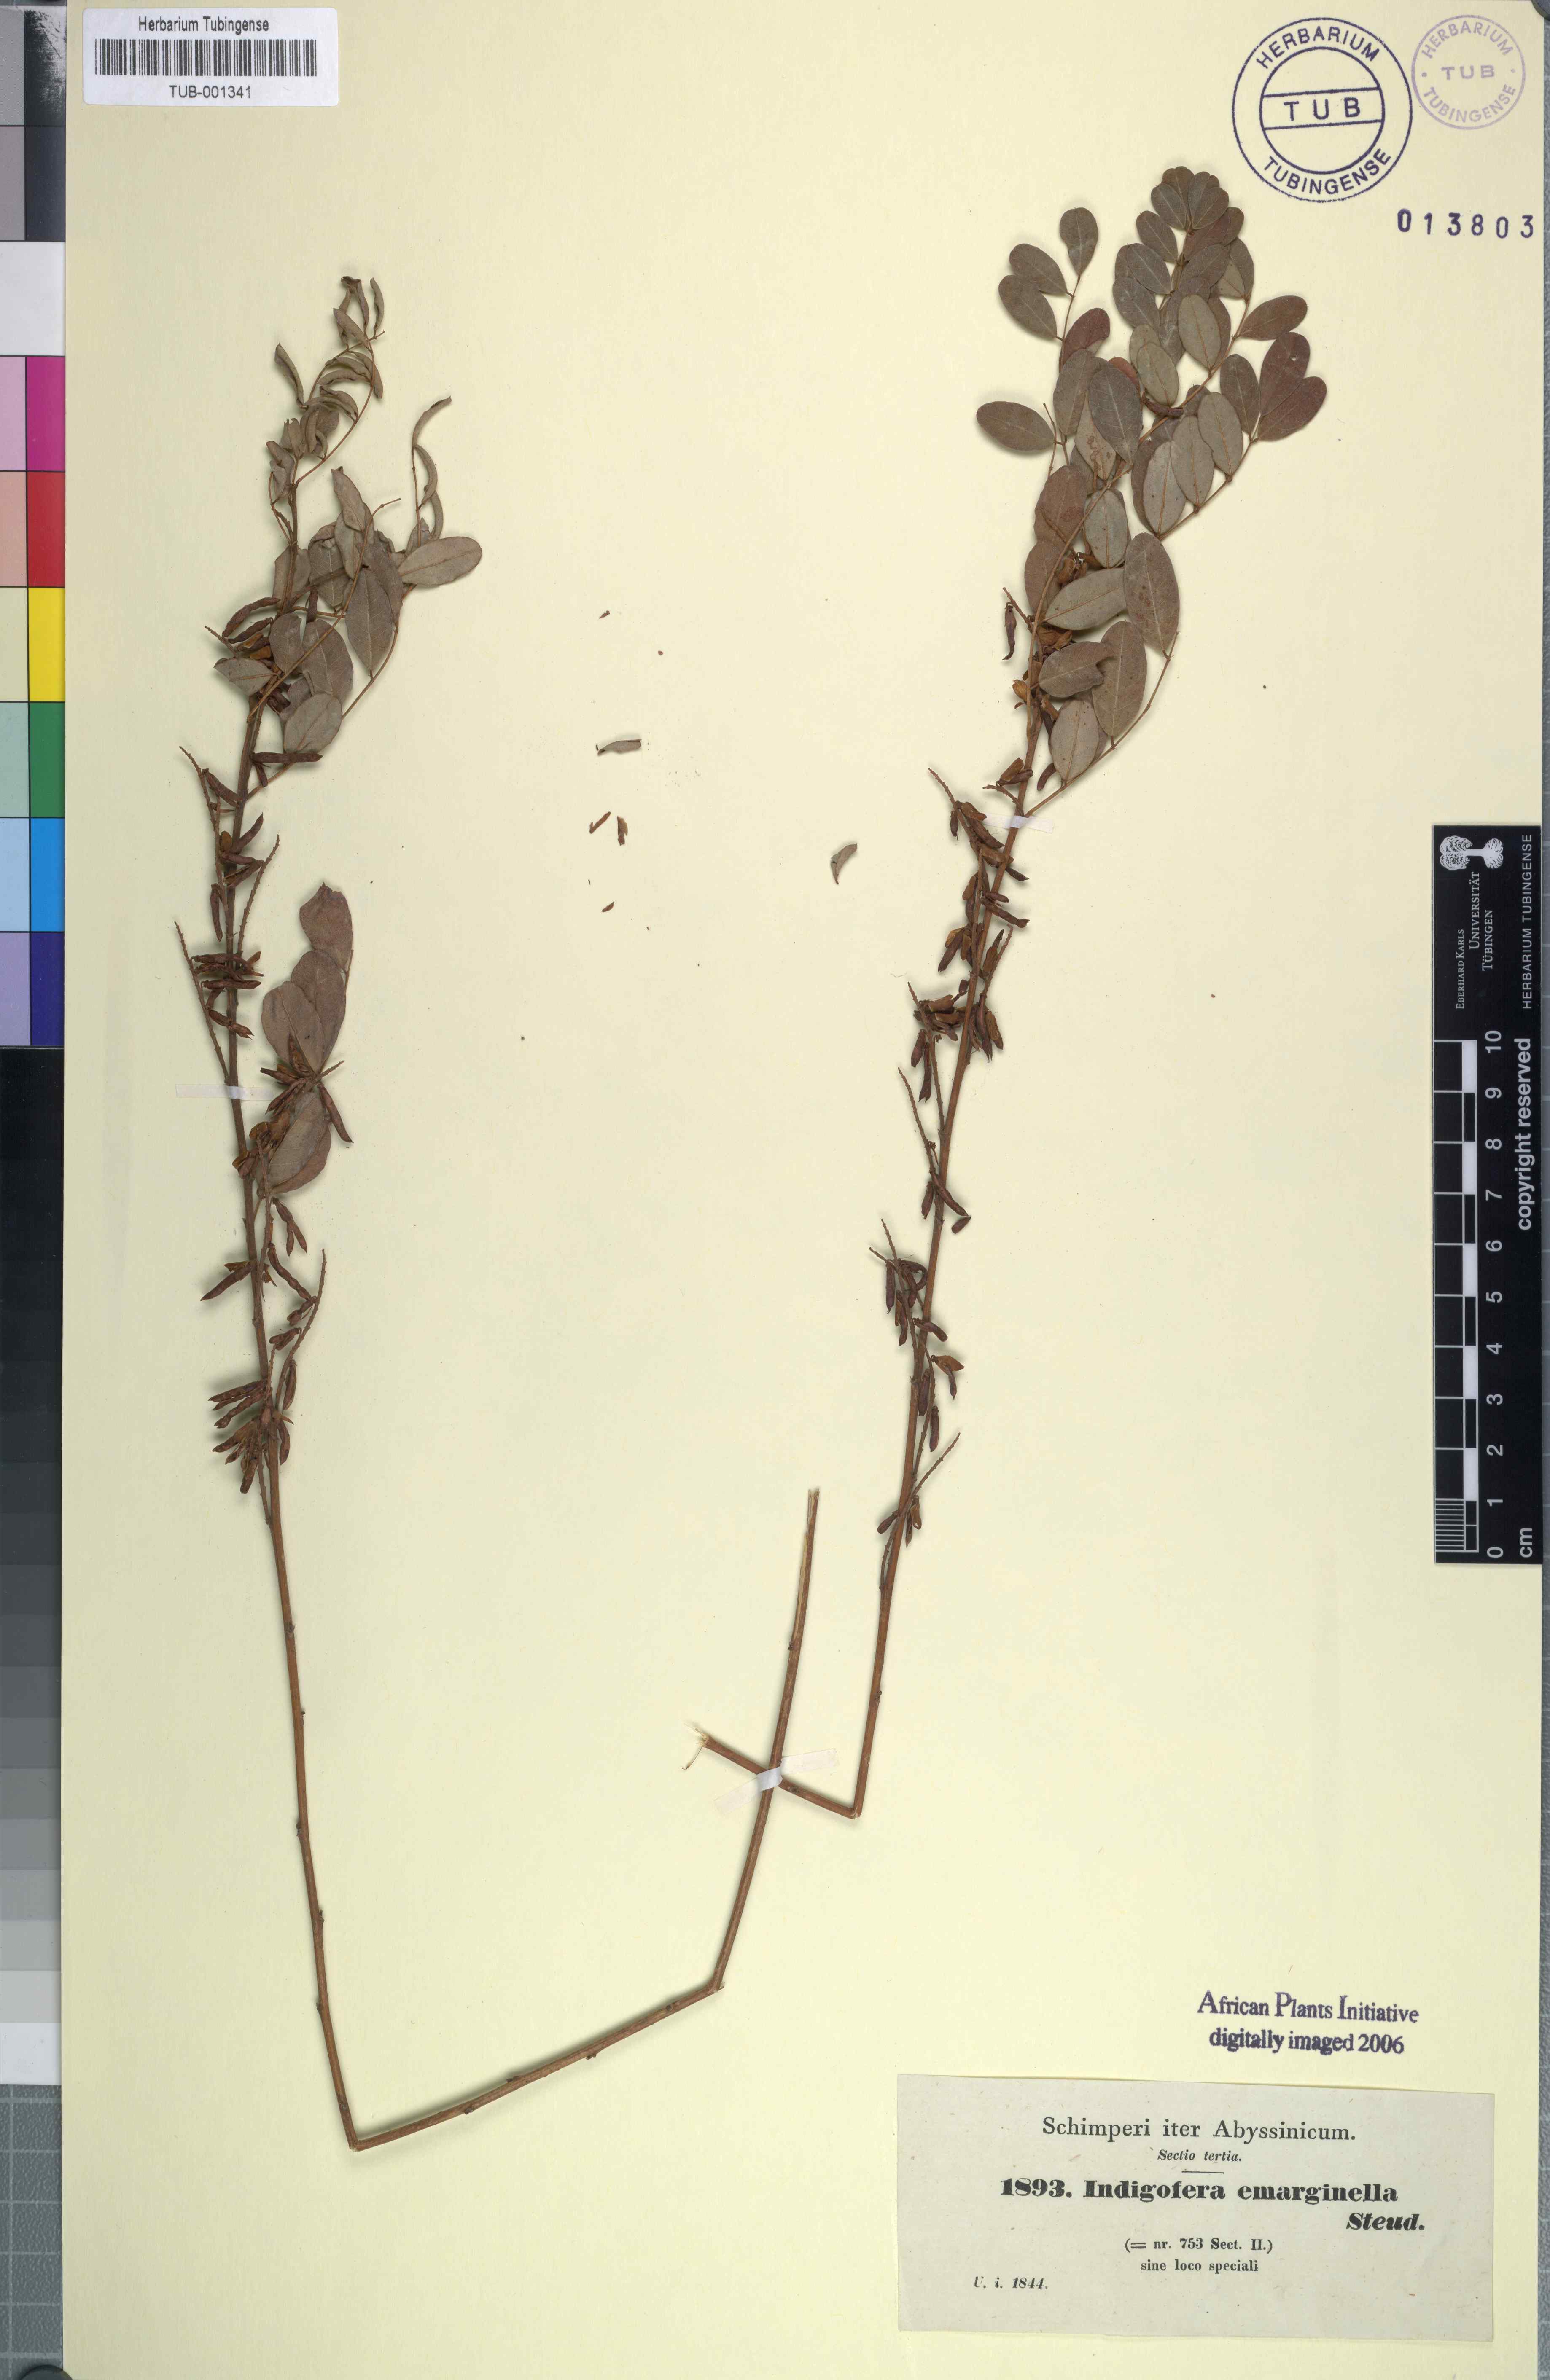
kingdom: Plantae
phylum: Tracheophyta
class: Magnoliopsida
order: Fabales
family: Fabaceae
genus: Indigofera
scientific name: Indigofera emarginella
